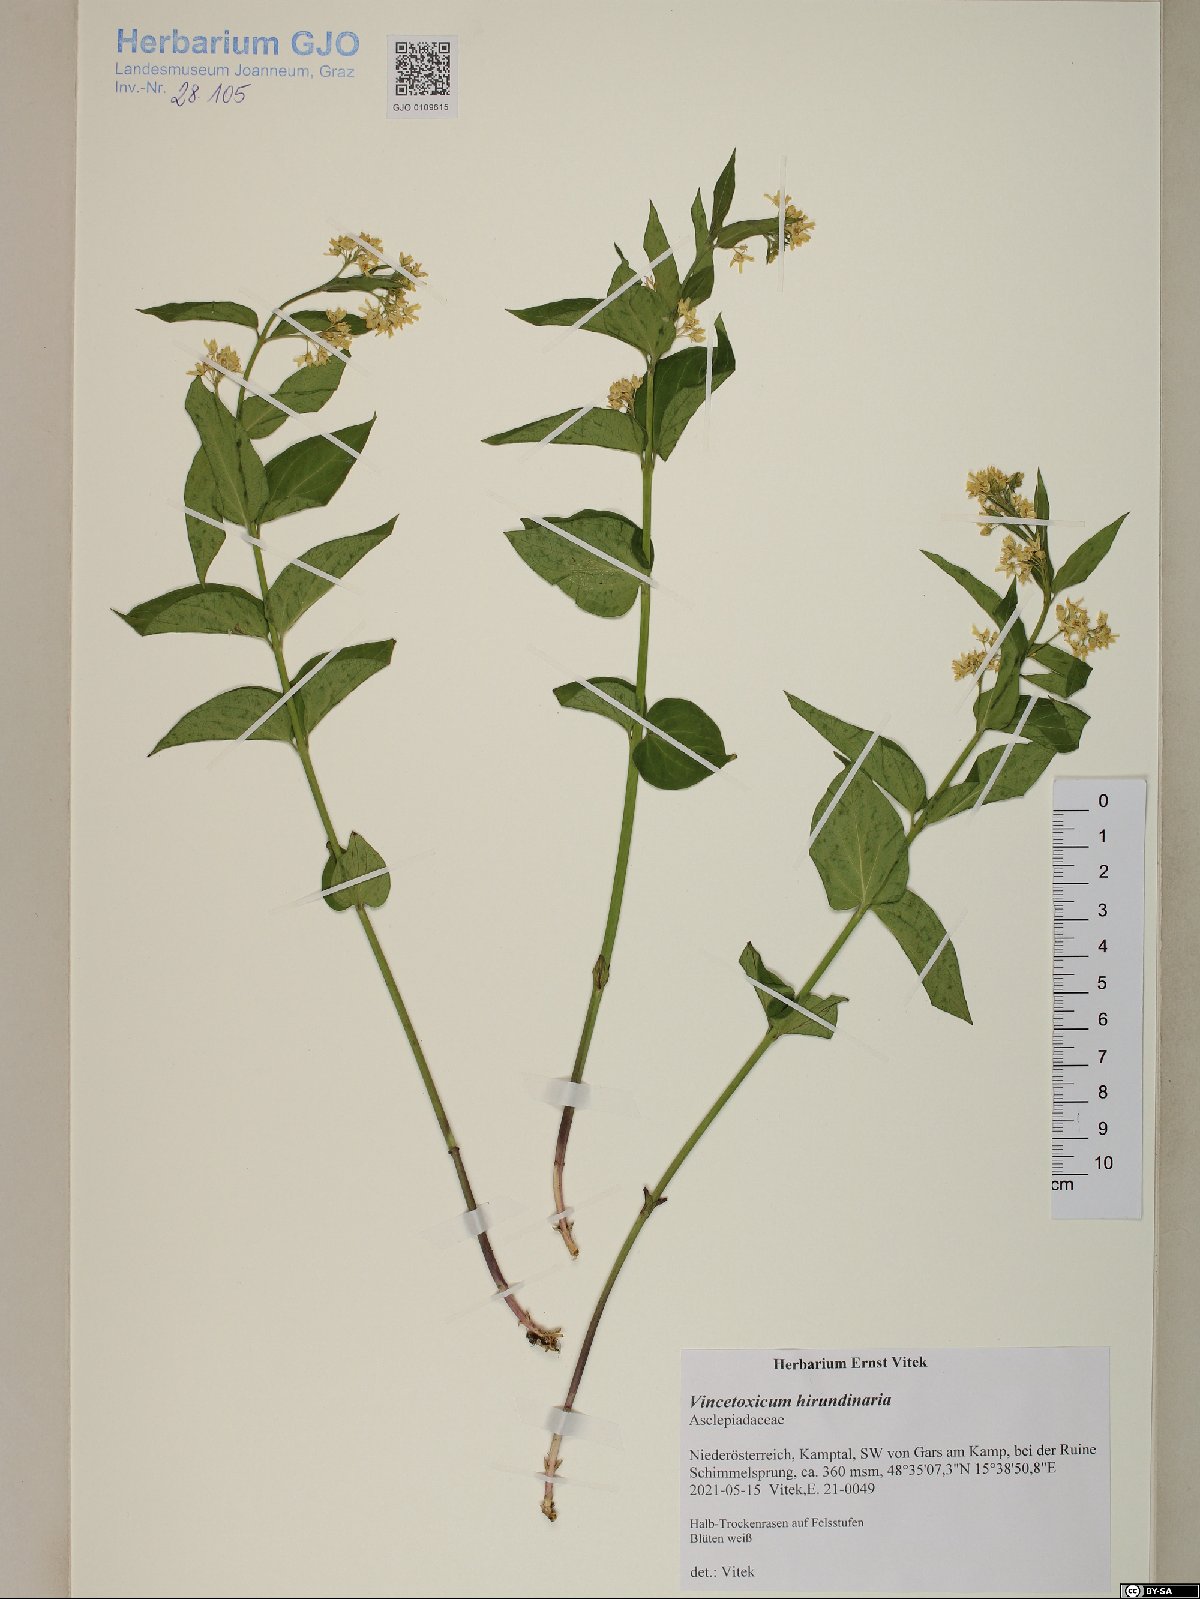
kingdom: Plantae
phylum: Tracheophyta
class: Magnoliopsida
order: Gentianales
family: Apocynaceae
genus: Vincetoxicum
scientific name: Vincetoxicum hirundinaria
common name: White swallowwort
